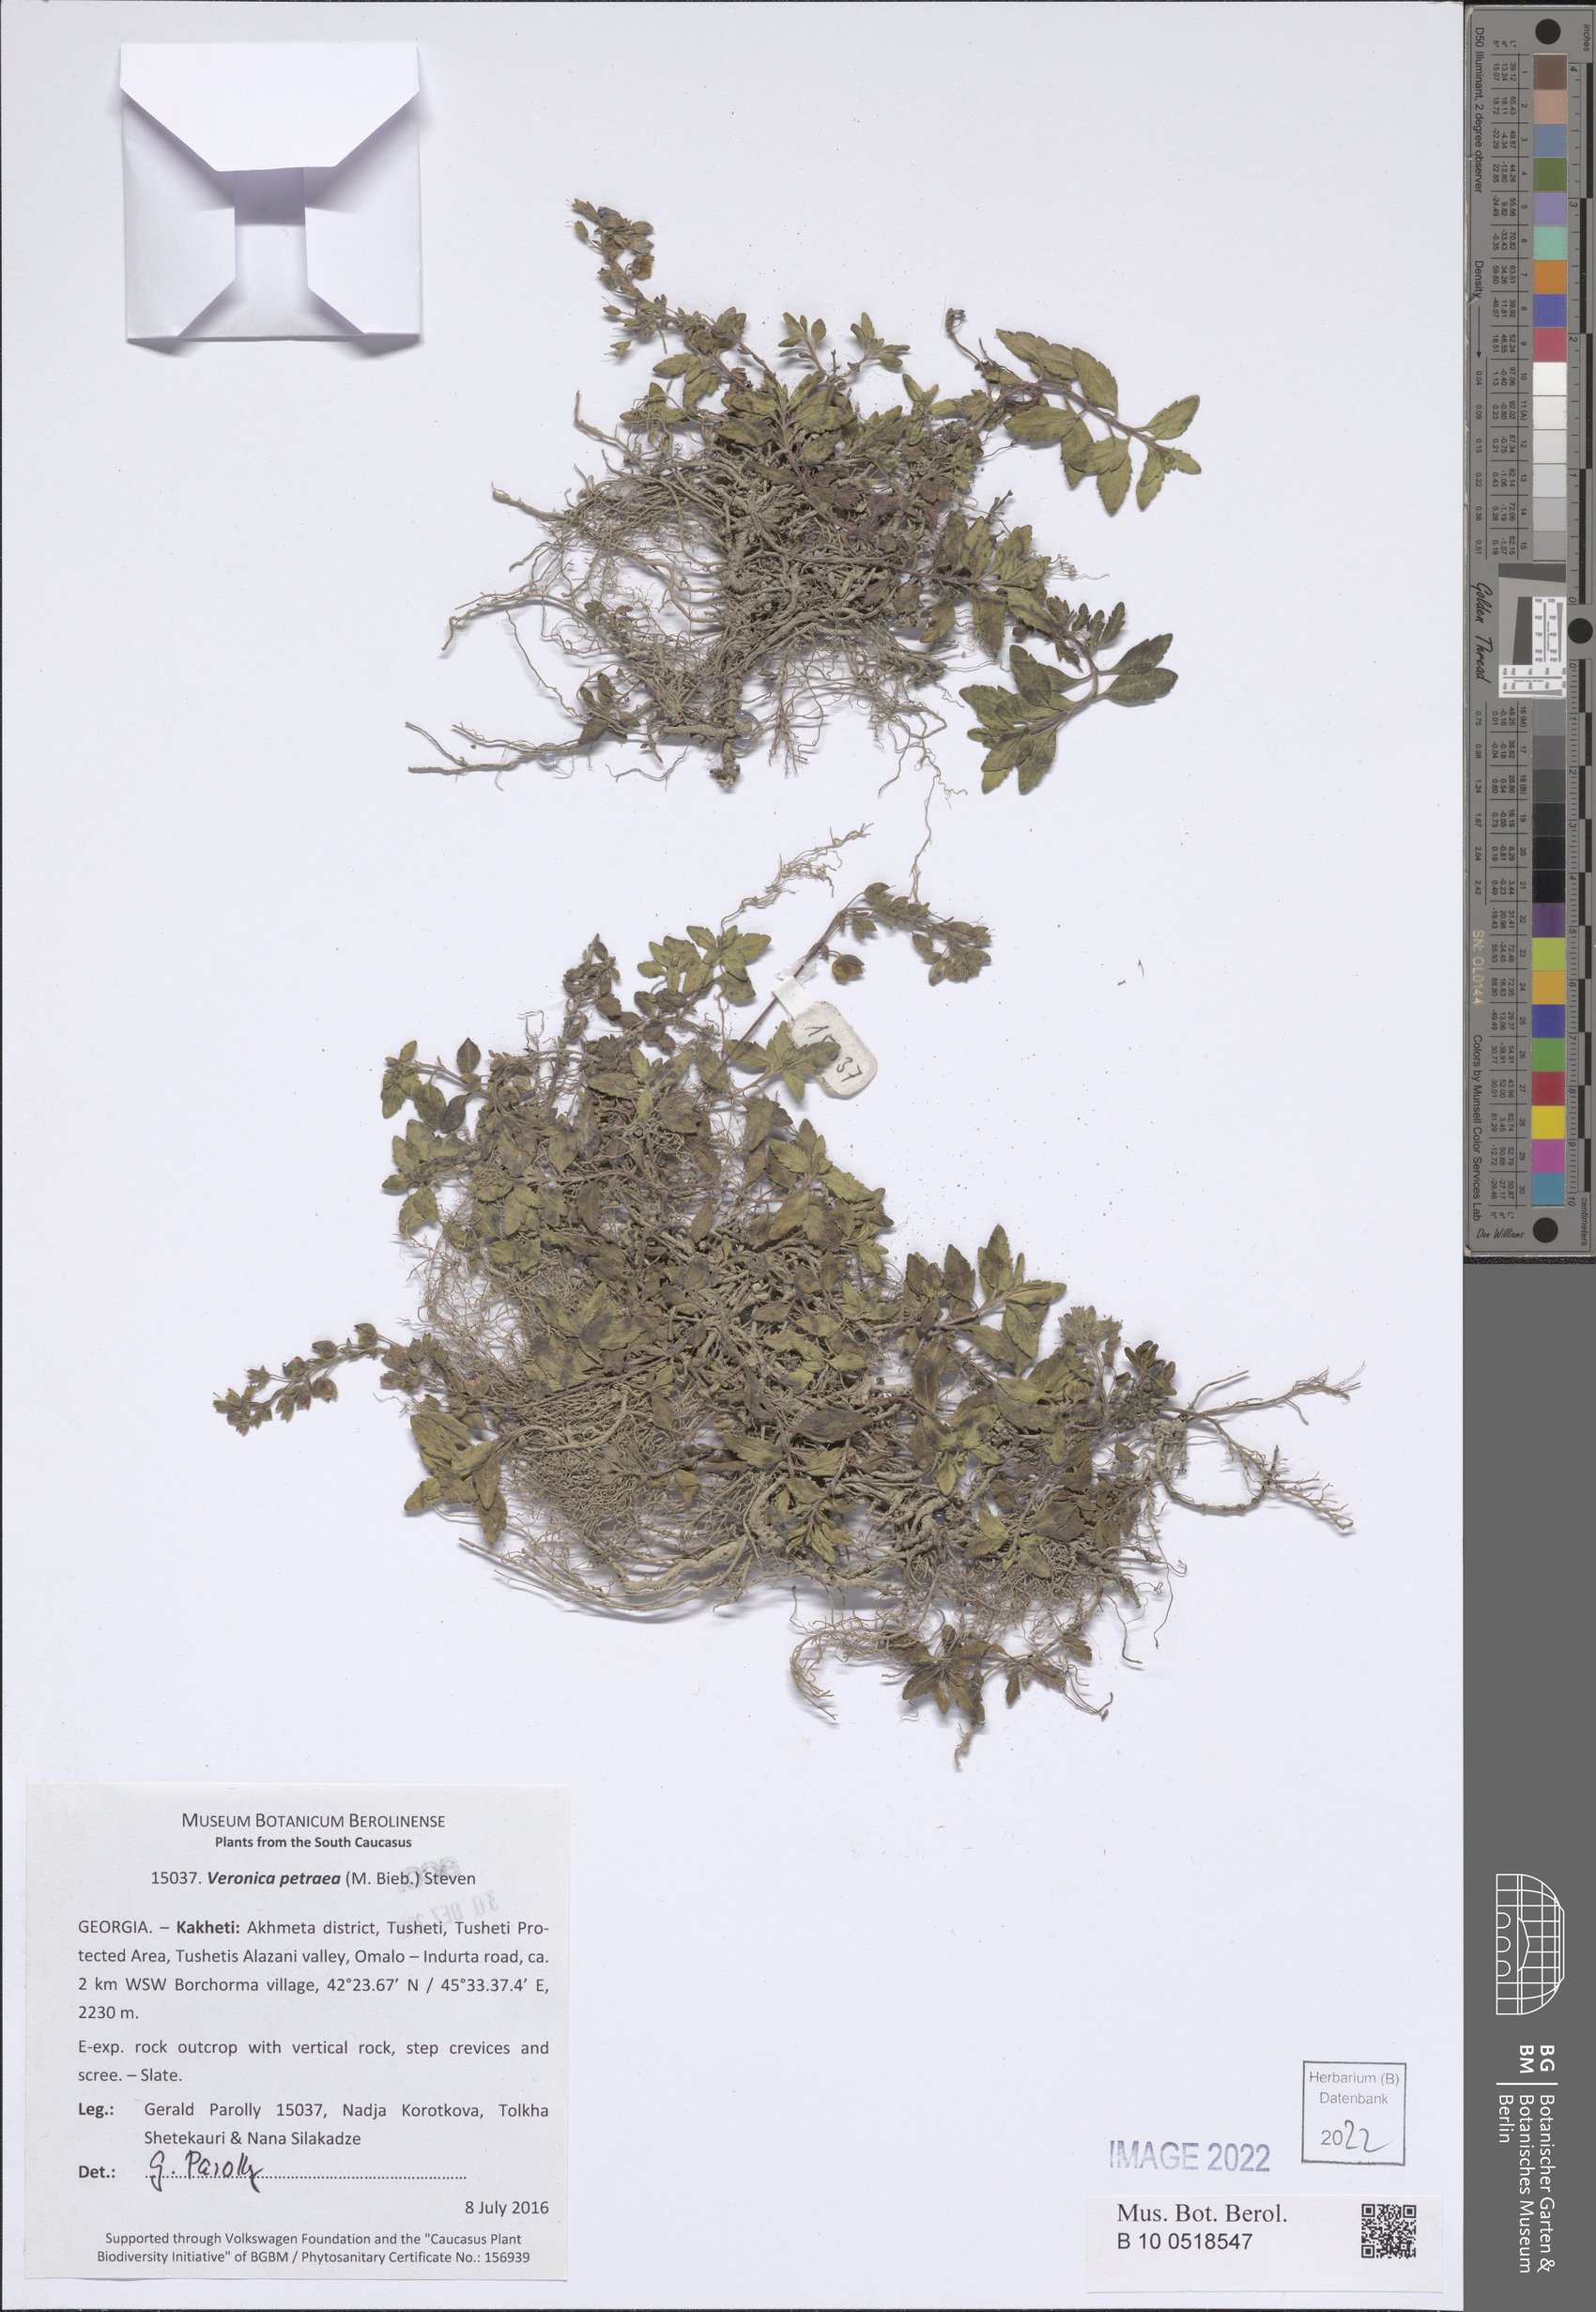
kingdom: Plantae
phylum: Tracheophyta
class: Magnoliopsida
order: Lamiales
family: Plantaginaceae
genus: Veronica
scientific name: Veronica petraea
